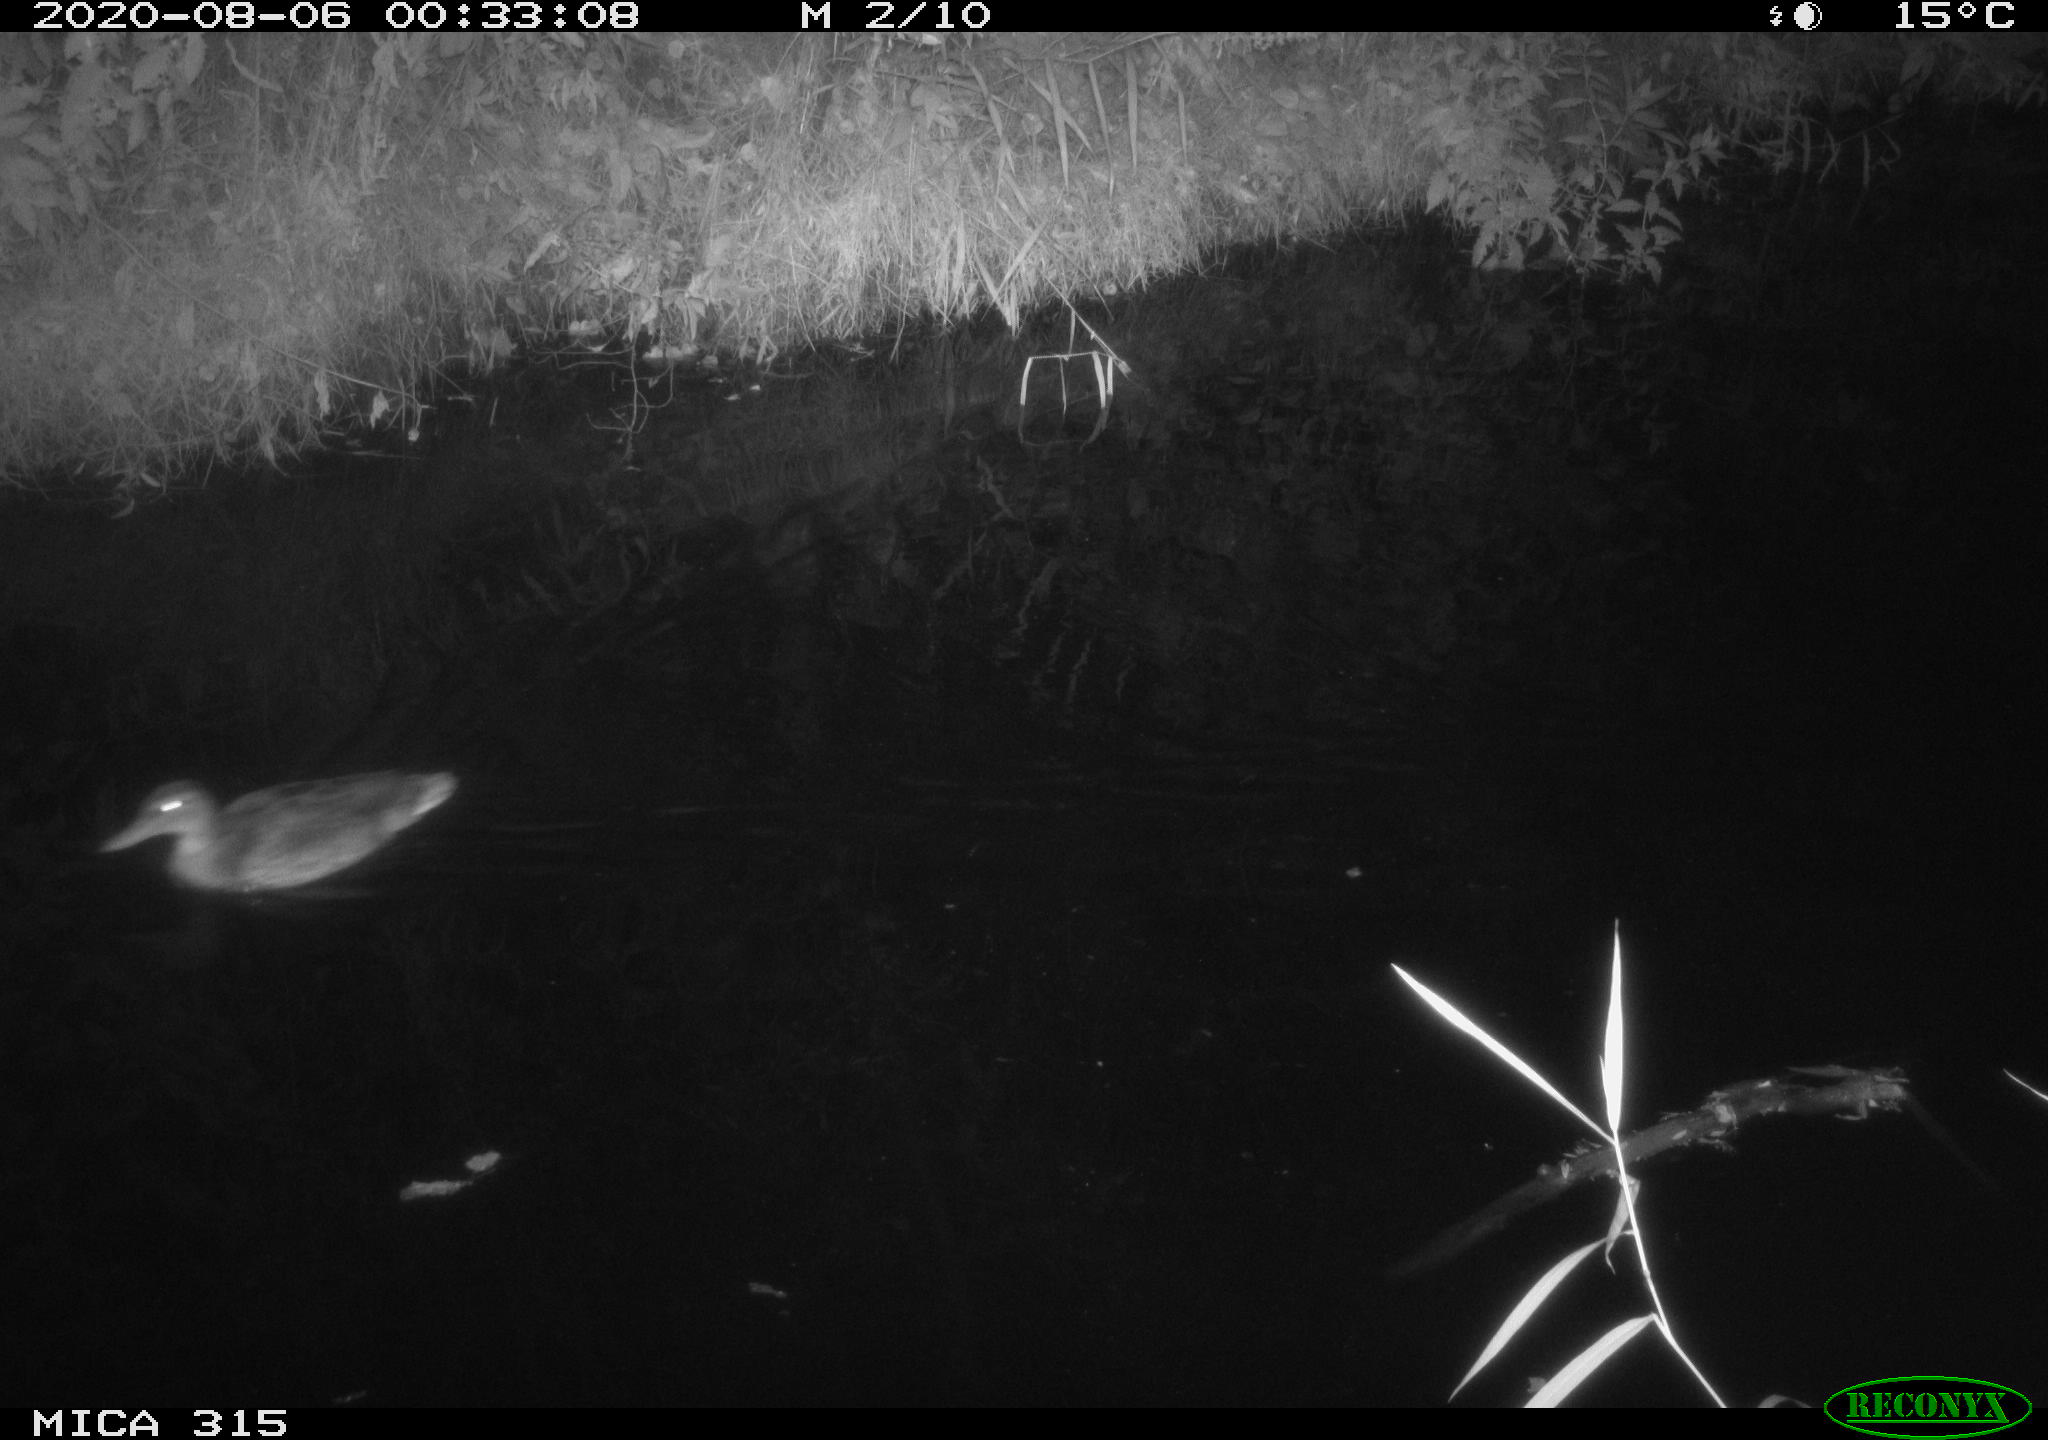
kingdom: Animalia
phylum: Chordata
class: Aves
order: Anseriformes
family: Anatidae
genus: Anas
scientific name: Anas platyrhynchos
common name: Mallard
